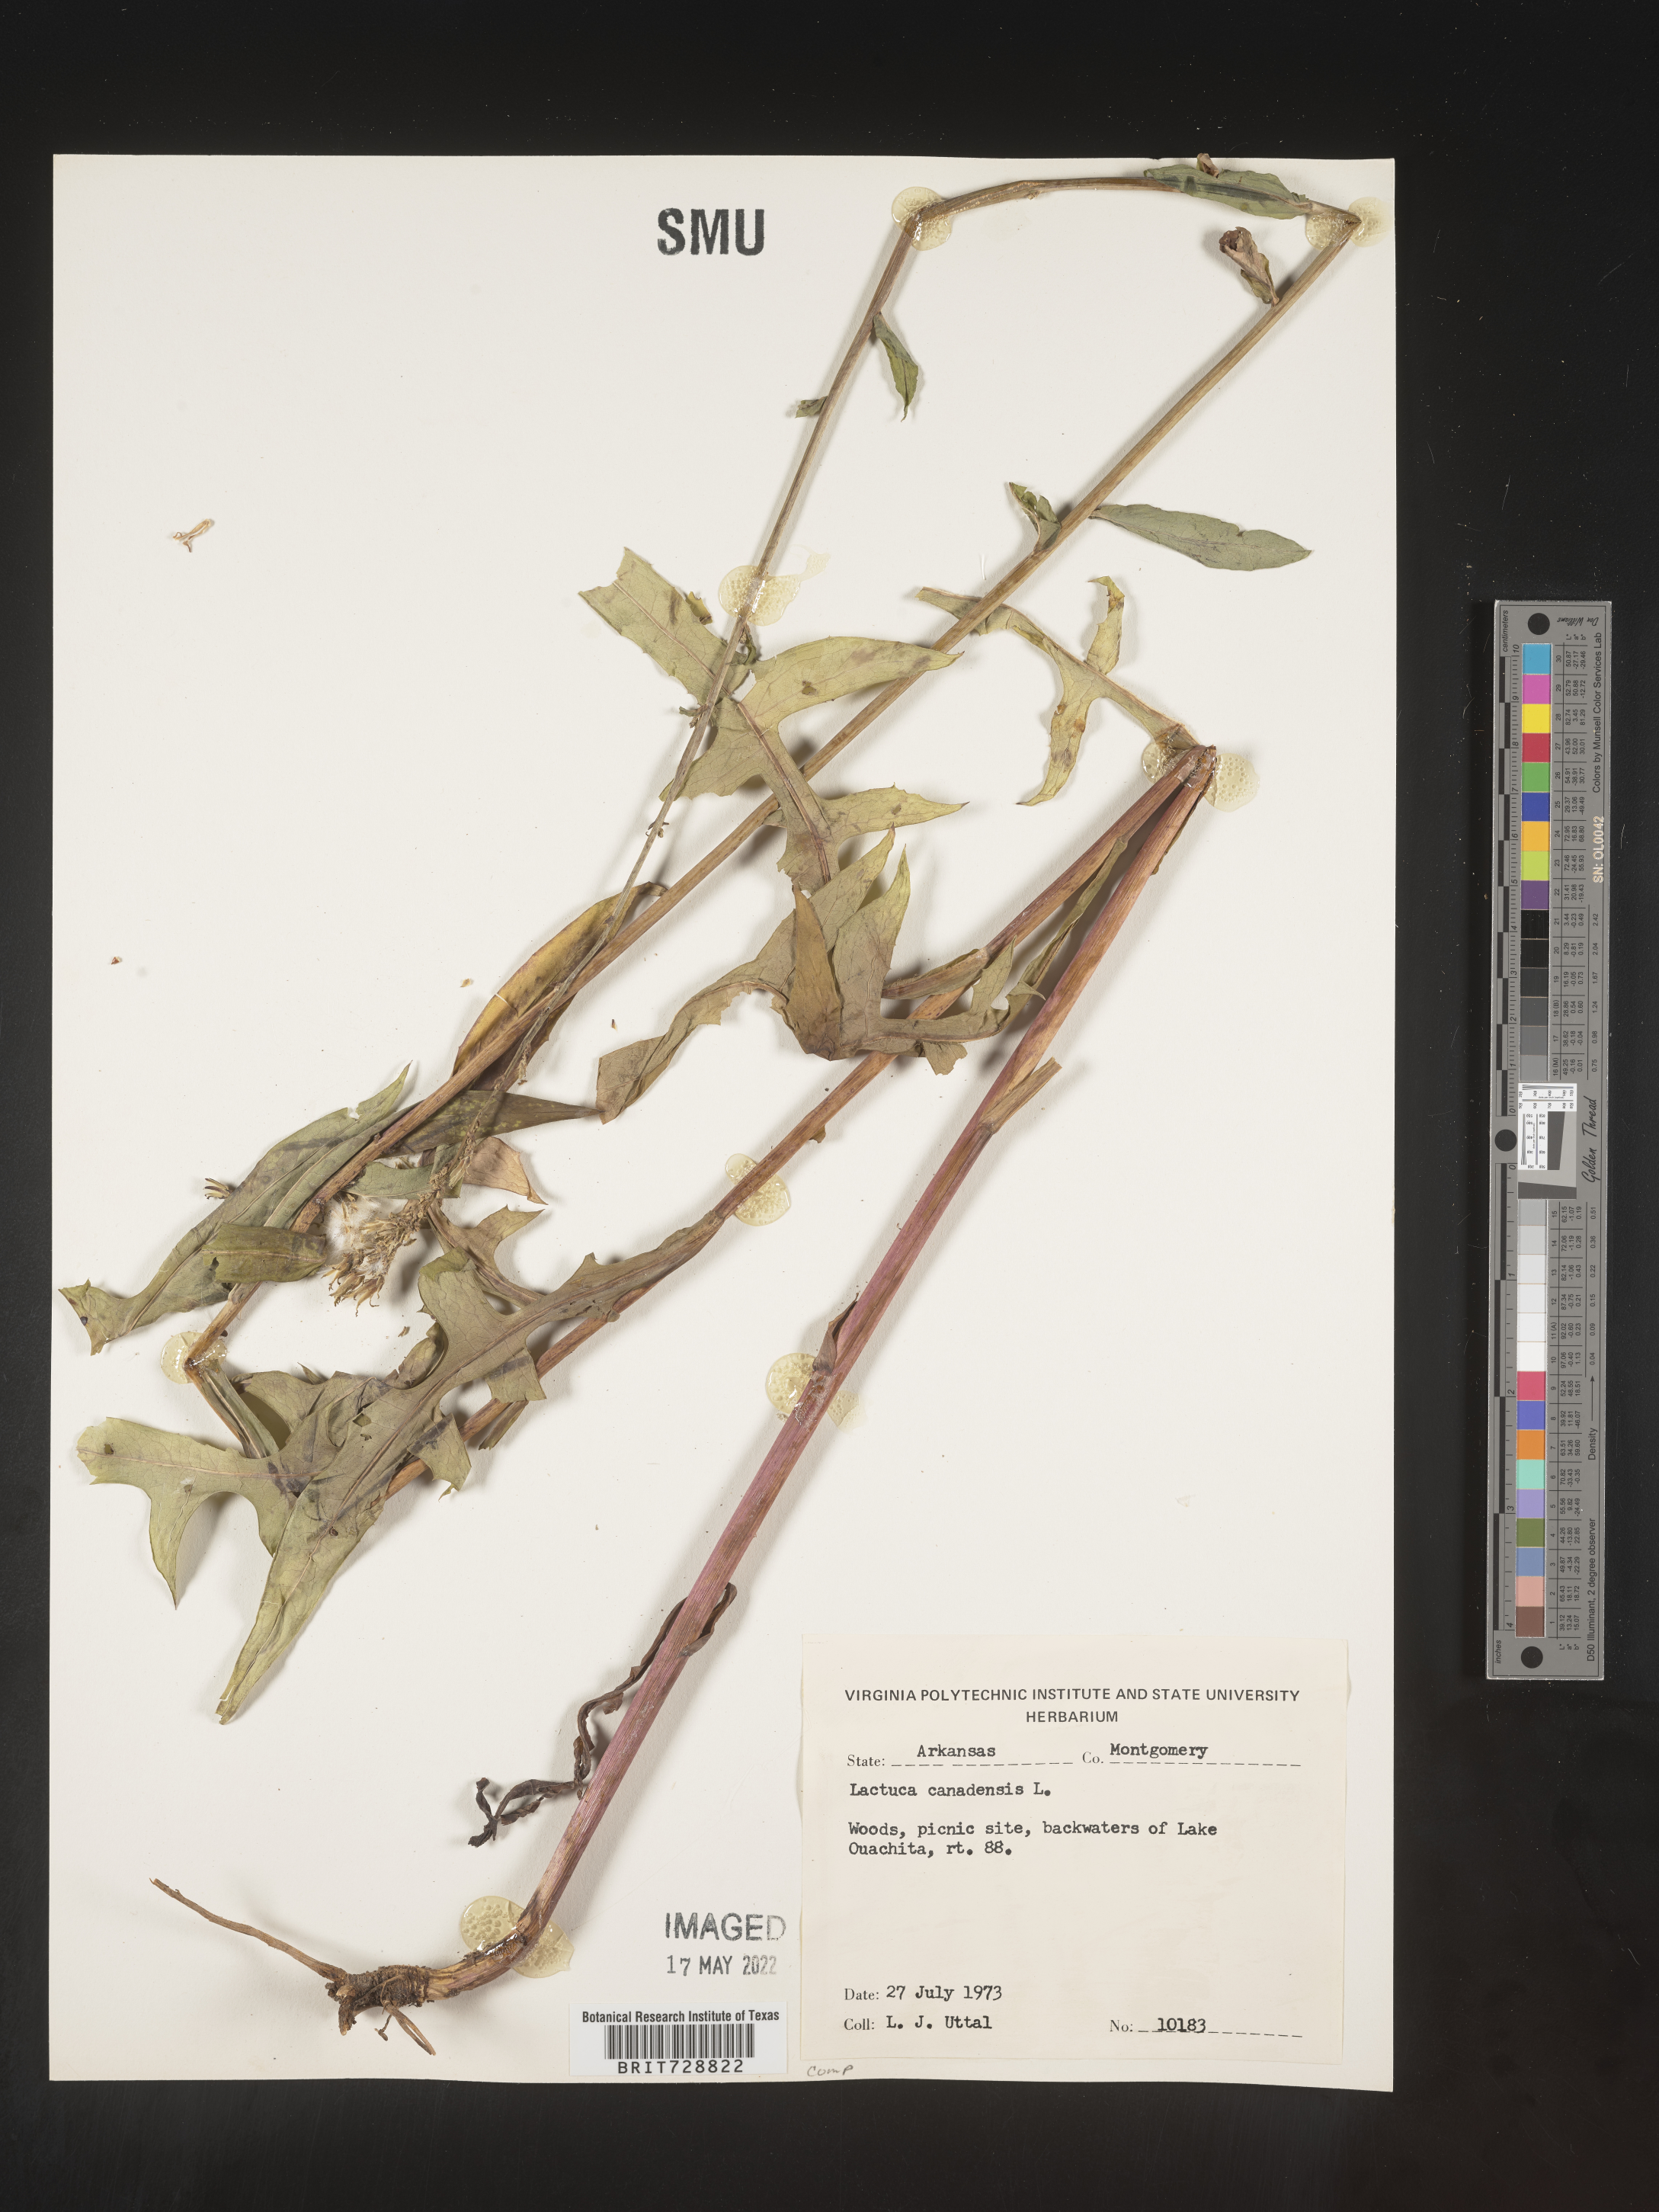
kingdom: Plantae
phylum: Tracheophyta
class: Magnoliopsida
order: Asterales
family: Asteraceae
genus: Lactuca
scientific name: Lactuca canadensis
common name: Canada lettuce
